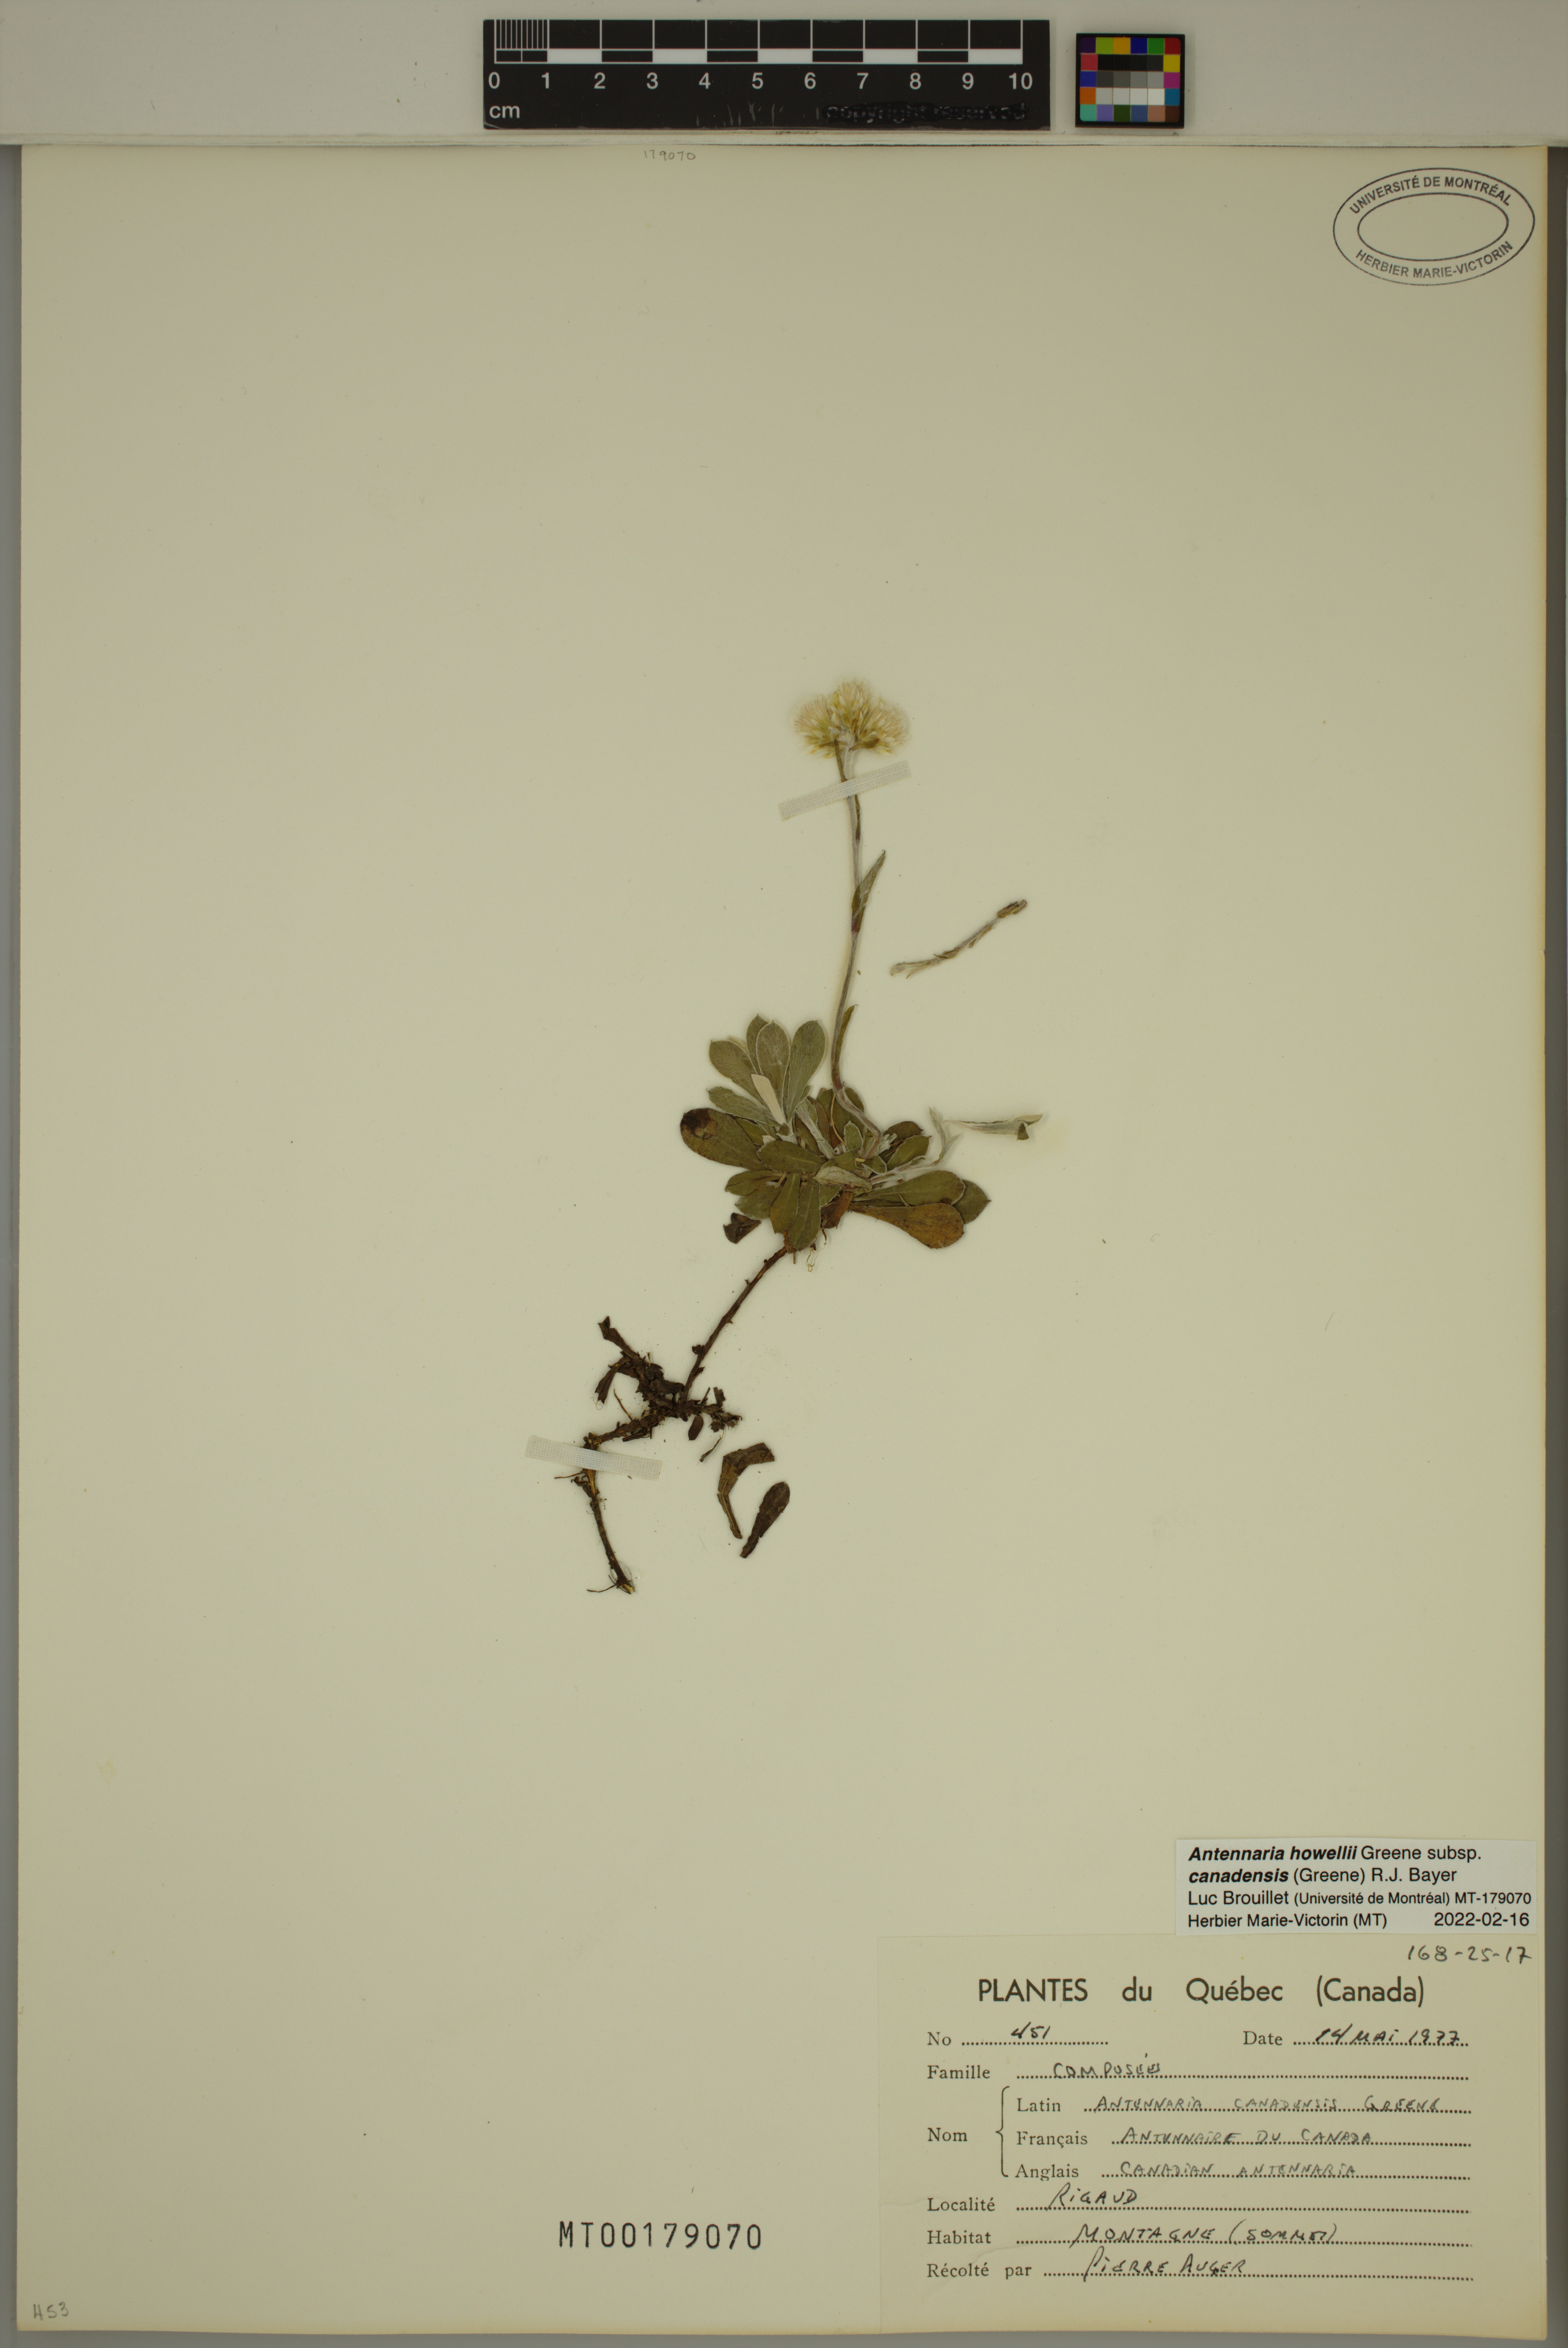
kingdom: Plantae
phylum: Tracheophyta
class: Magnoliopsida
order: Asterales
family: Asteraceae
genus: Antennaria
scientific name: Antennaria howellii
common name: Howell's pussytoes
